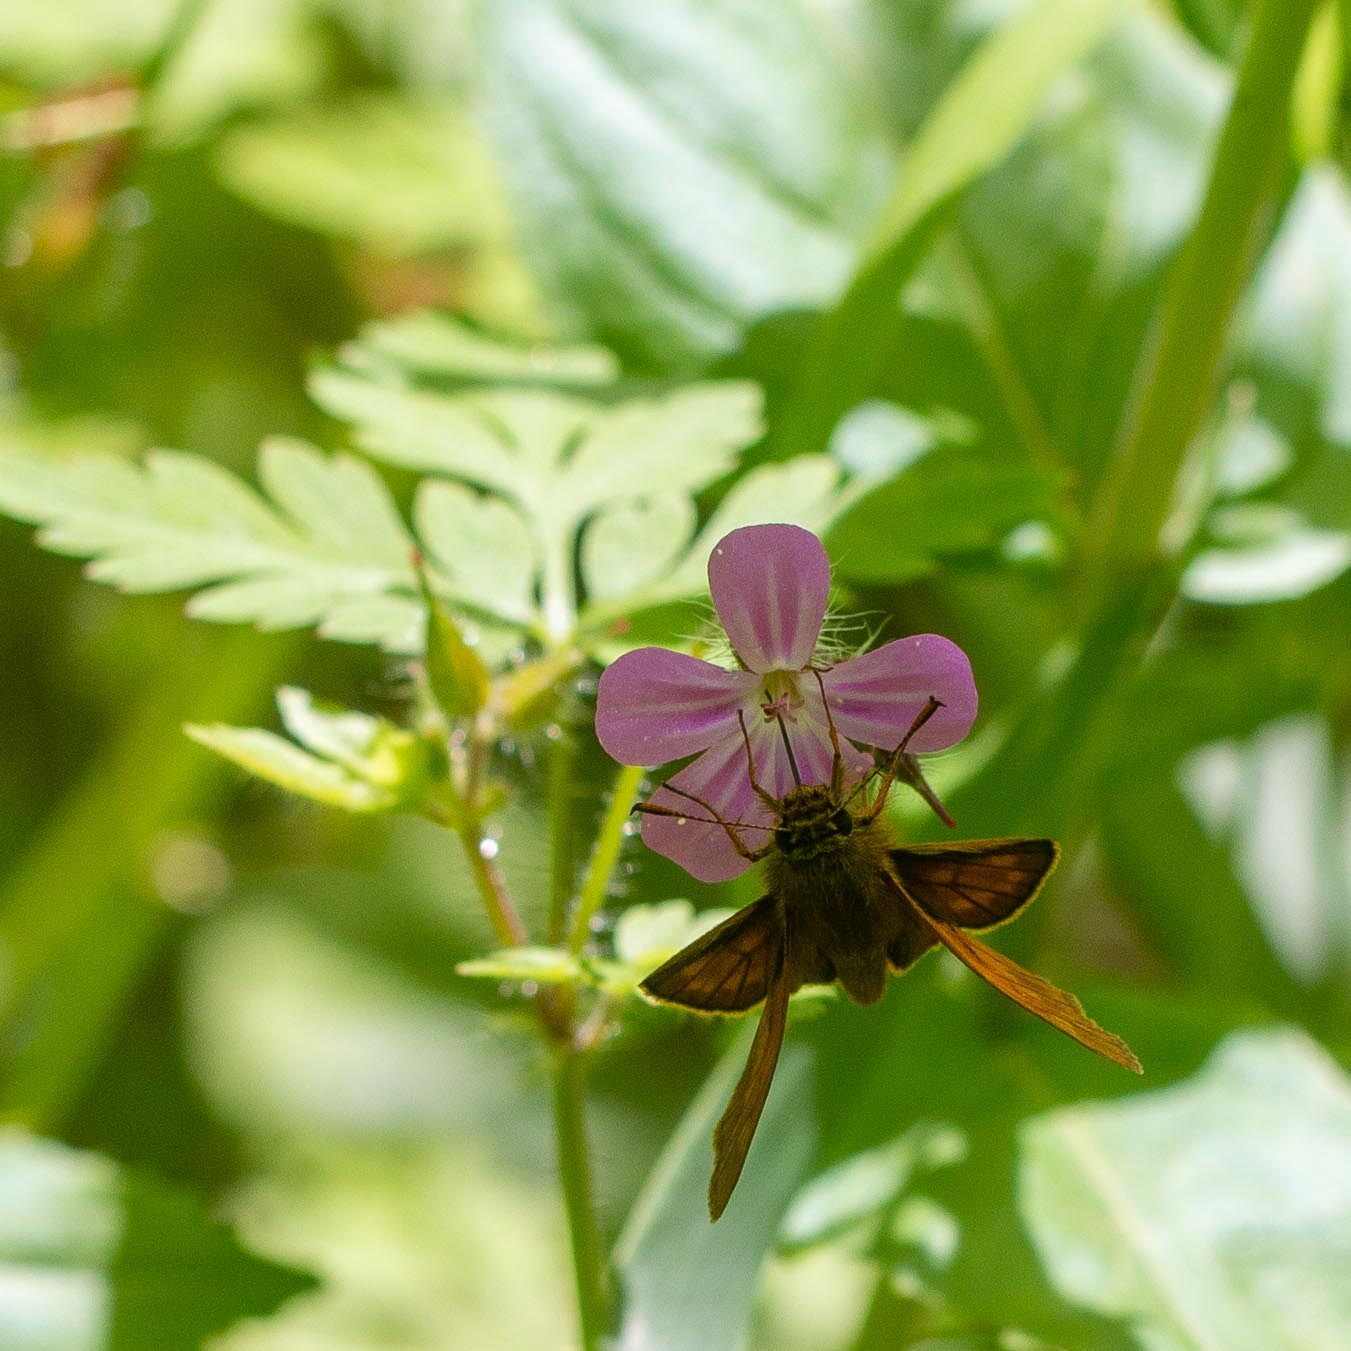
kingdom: Animalia
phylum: Arthropoda
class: Insecta
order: Lepidoptera
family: Hesperiidae
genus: Ochlodes
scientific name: Ochlodes venata
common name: Stor bredpande
